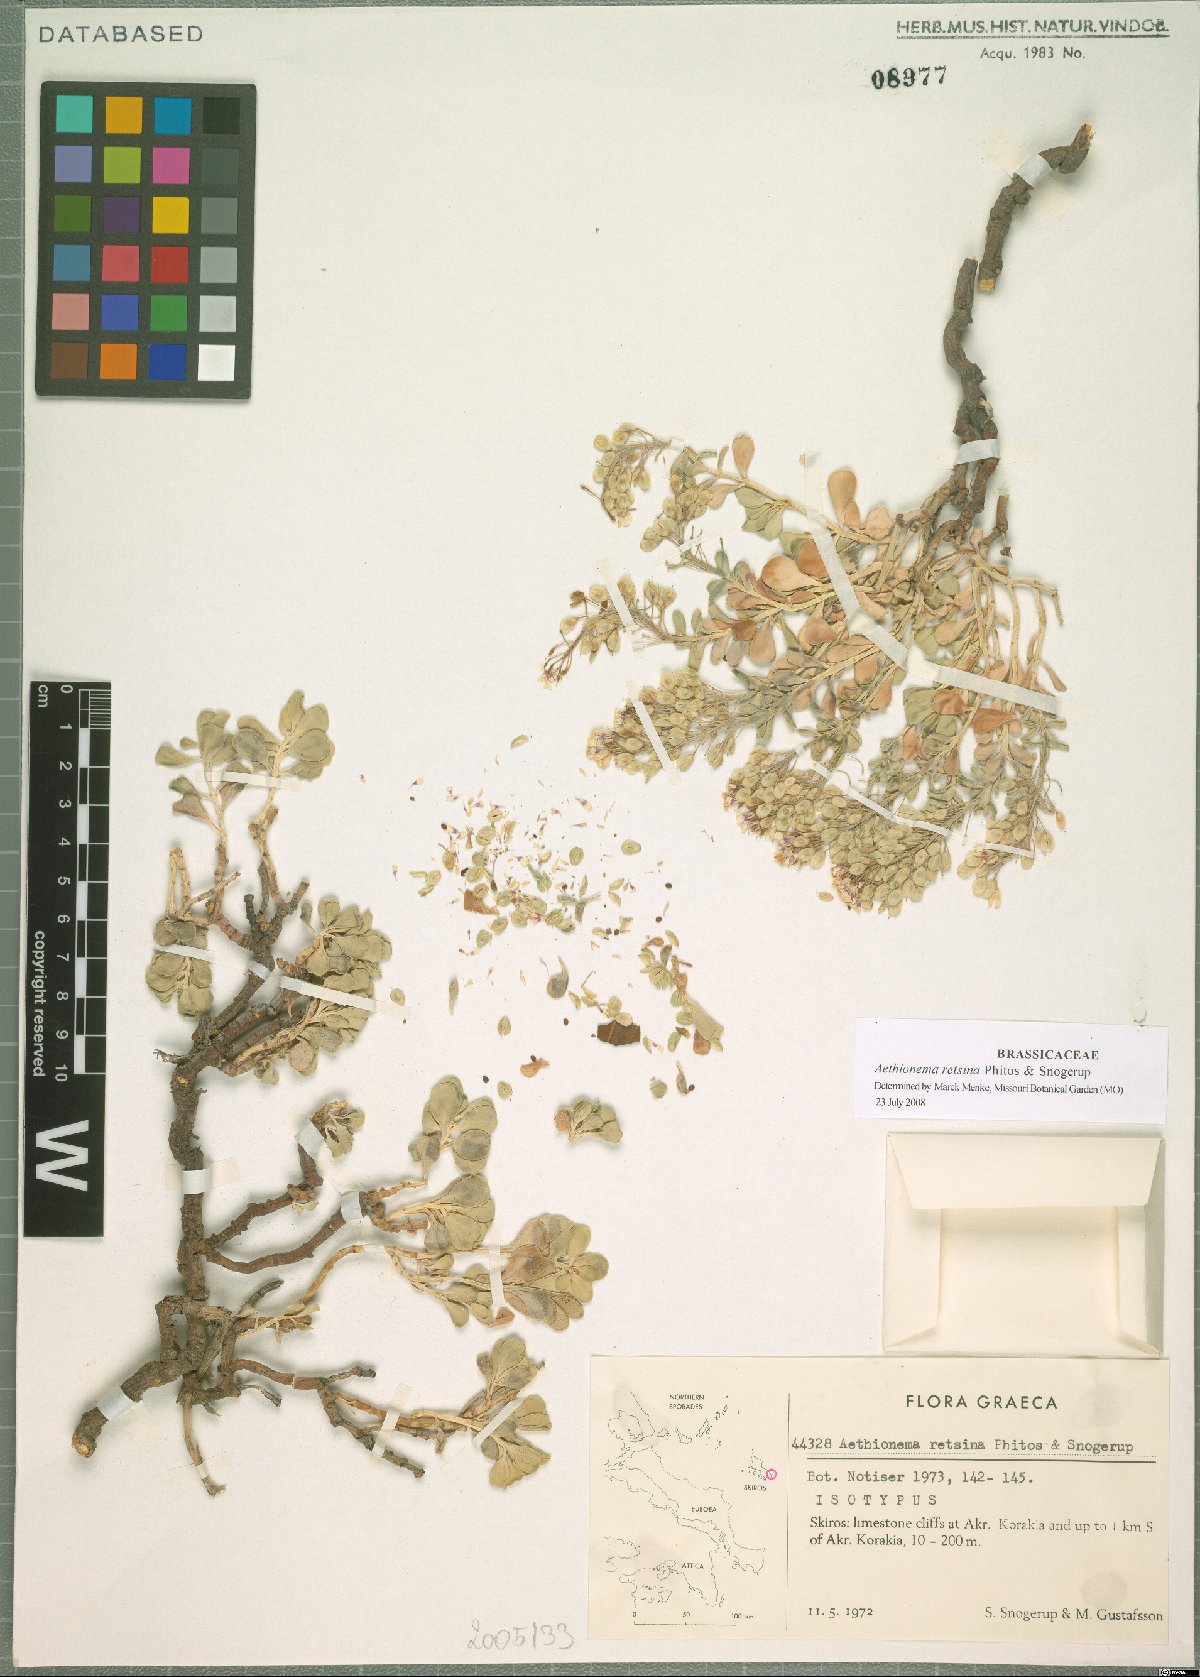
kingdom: Plantae
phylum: Tracheophyta
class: Magnoliopsida
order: Brassicales
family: Brassicaceae
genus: Aethionema
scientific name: Aethionema retsina
